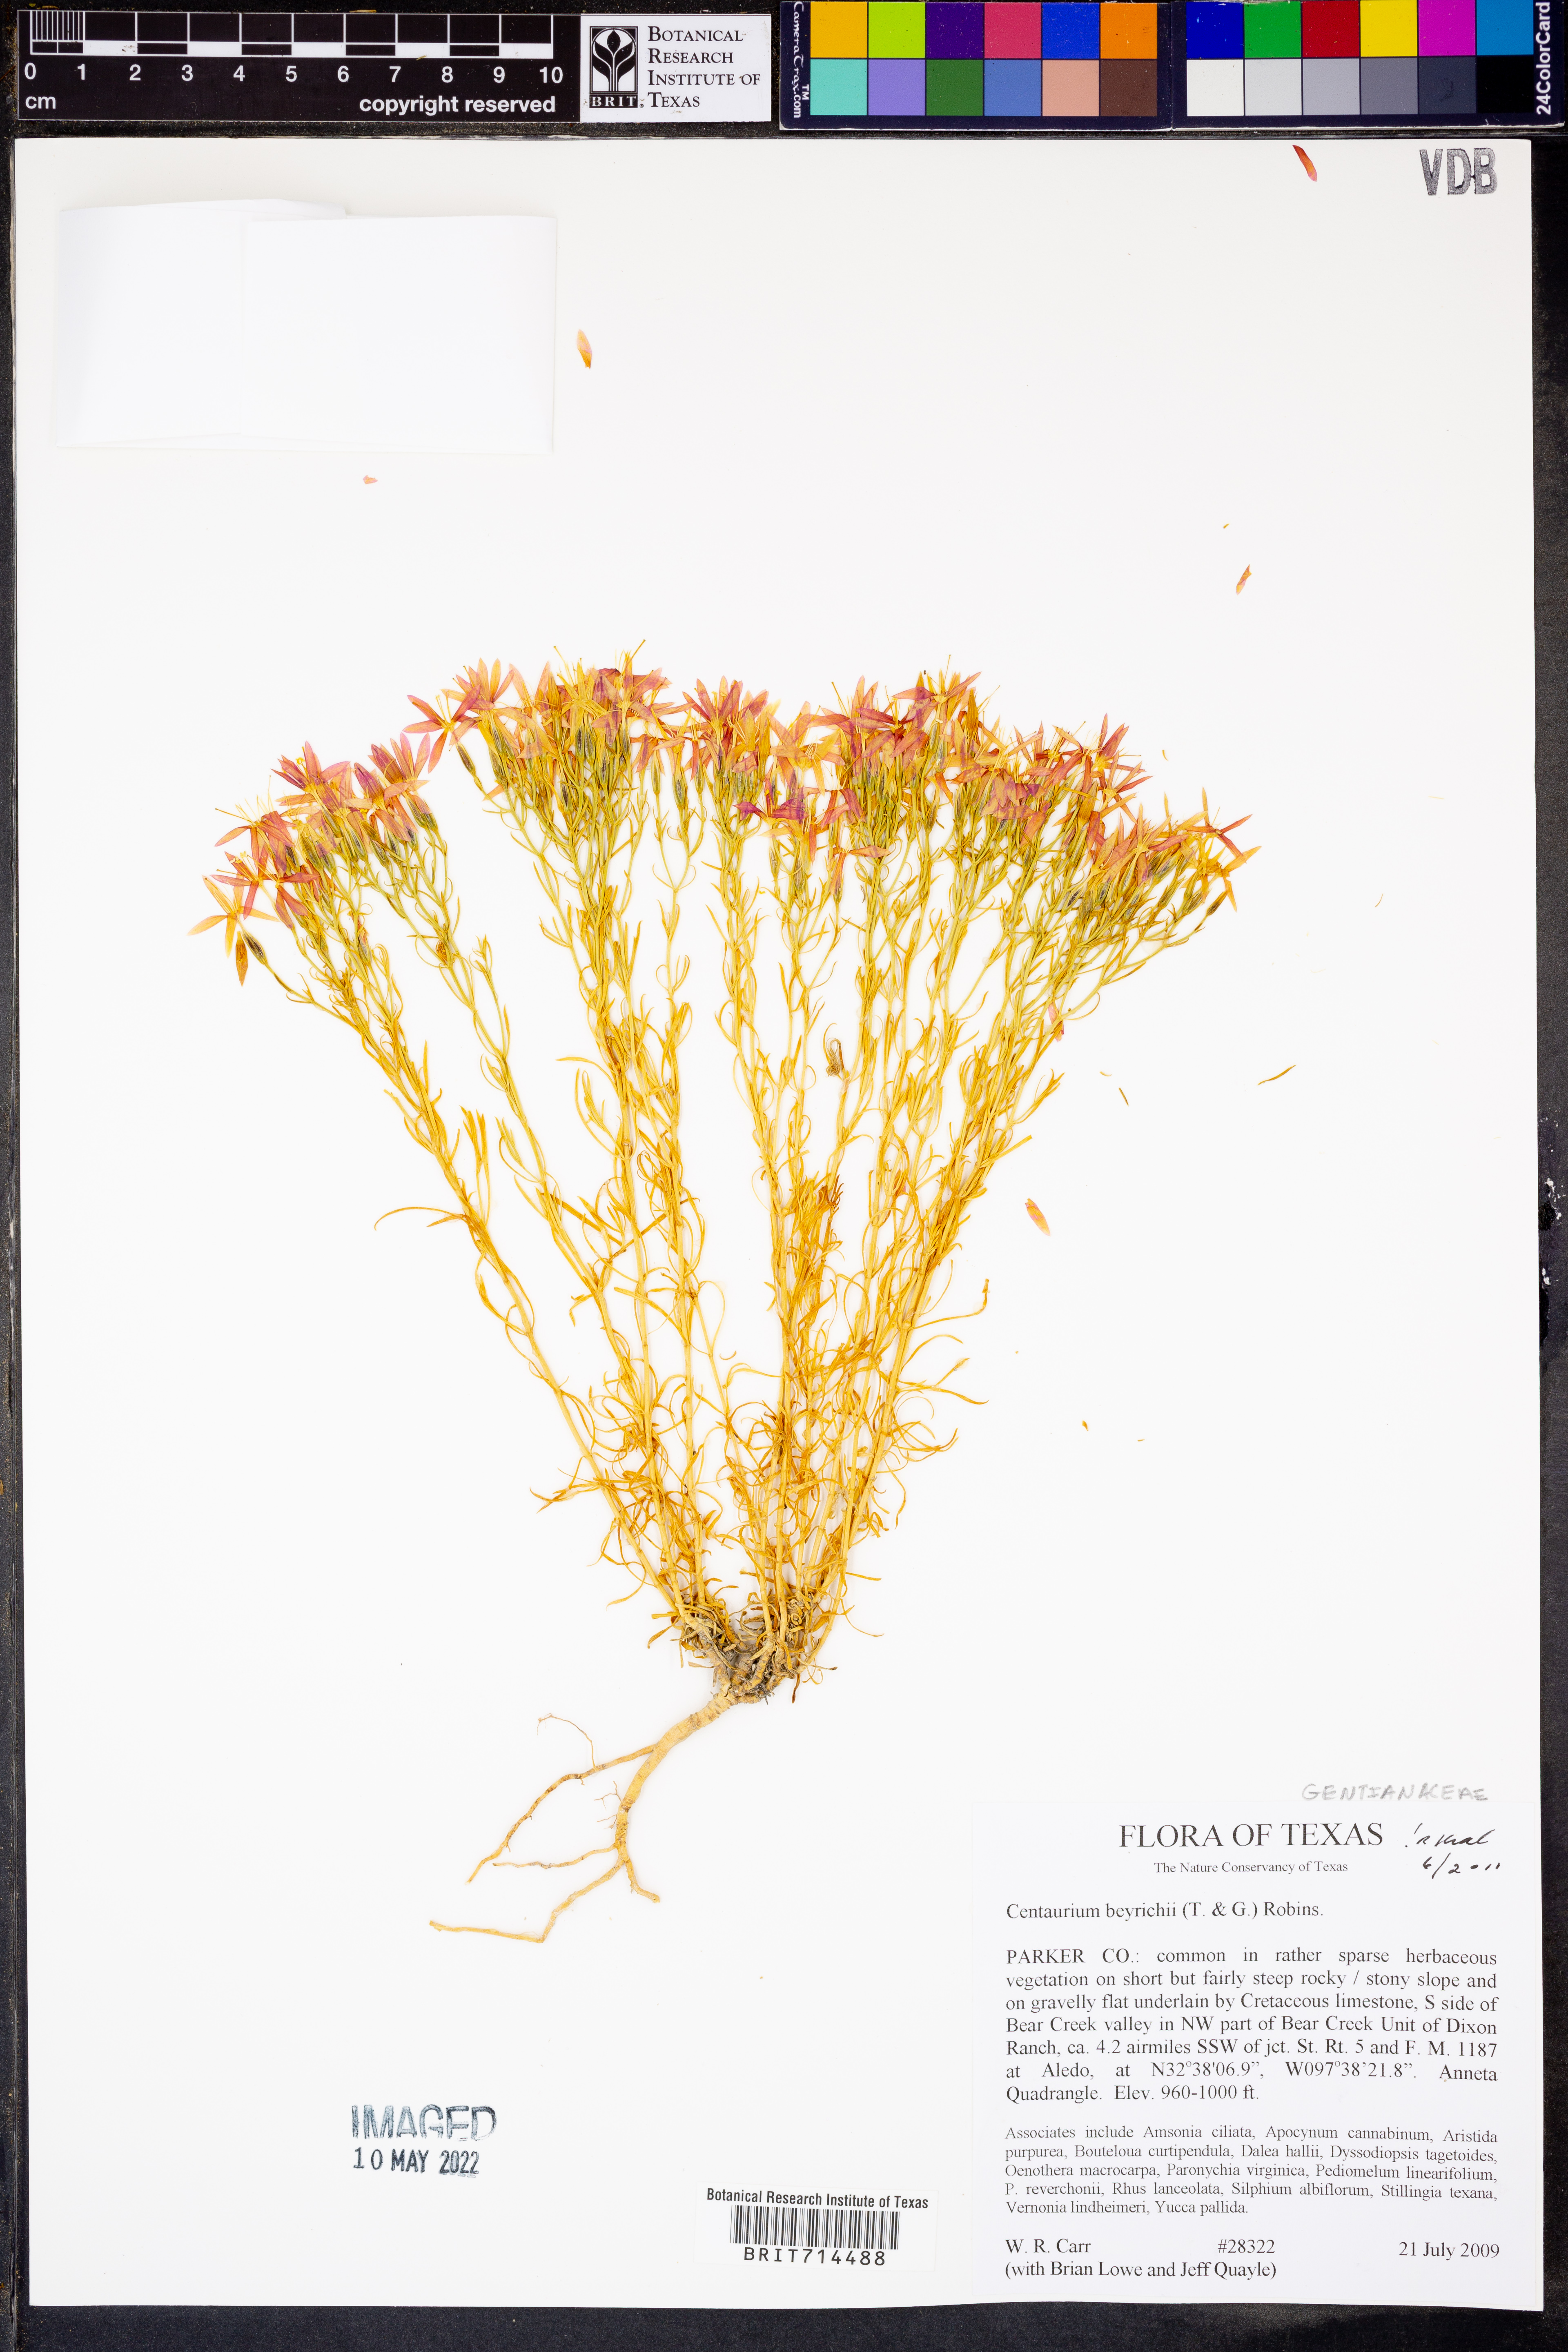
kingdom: Plantae
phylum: Tracheophyta
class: Magnoliopsida
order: Gentianales
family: Gentianaceae
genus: Zeltnera
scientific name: Zeltnera beyrichii
